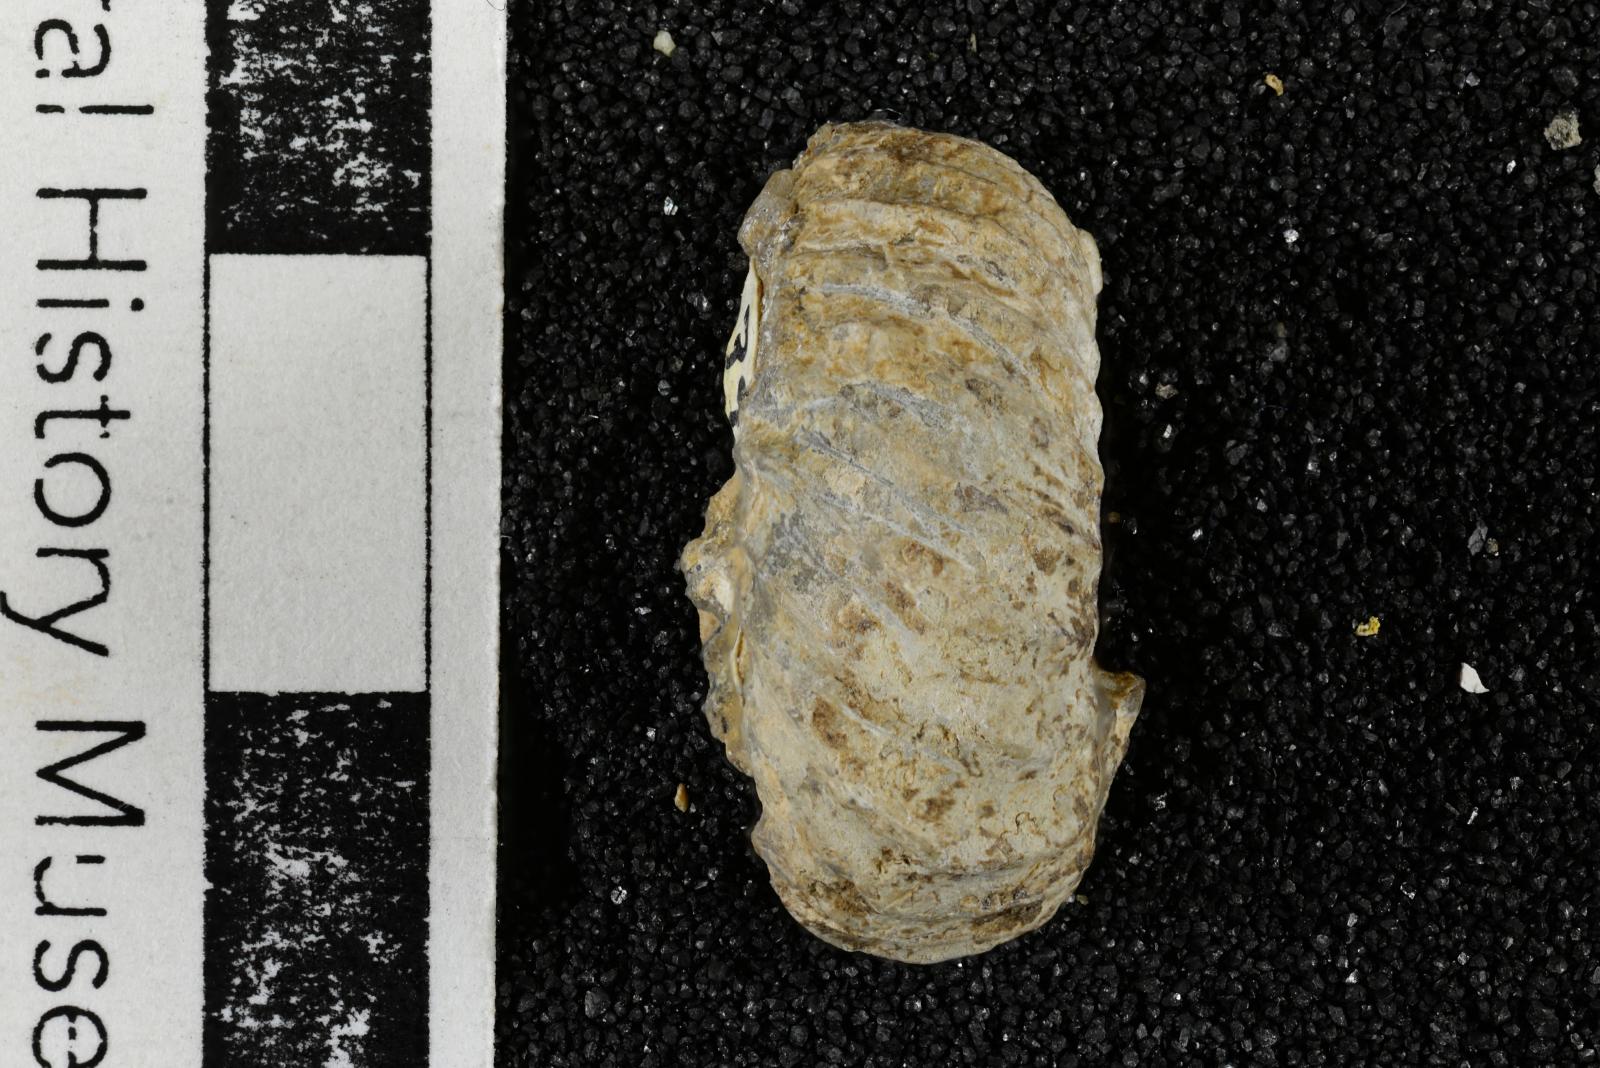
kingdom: Animalia
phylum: Mollusca
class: Cephalopoda
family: Nostoceratidae
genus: Nostoceras
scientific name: Nostoceras
